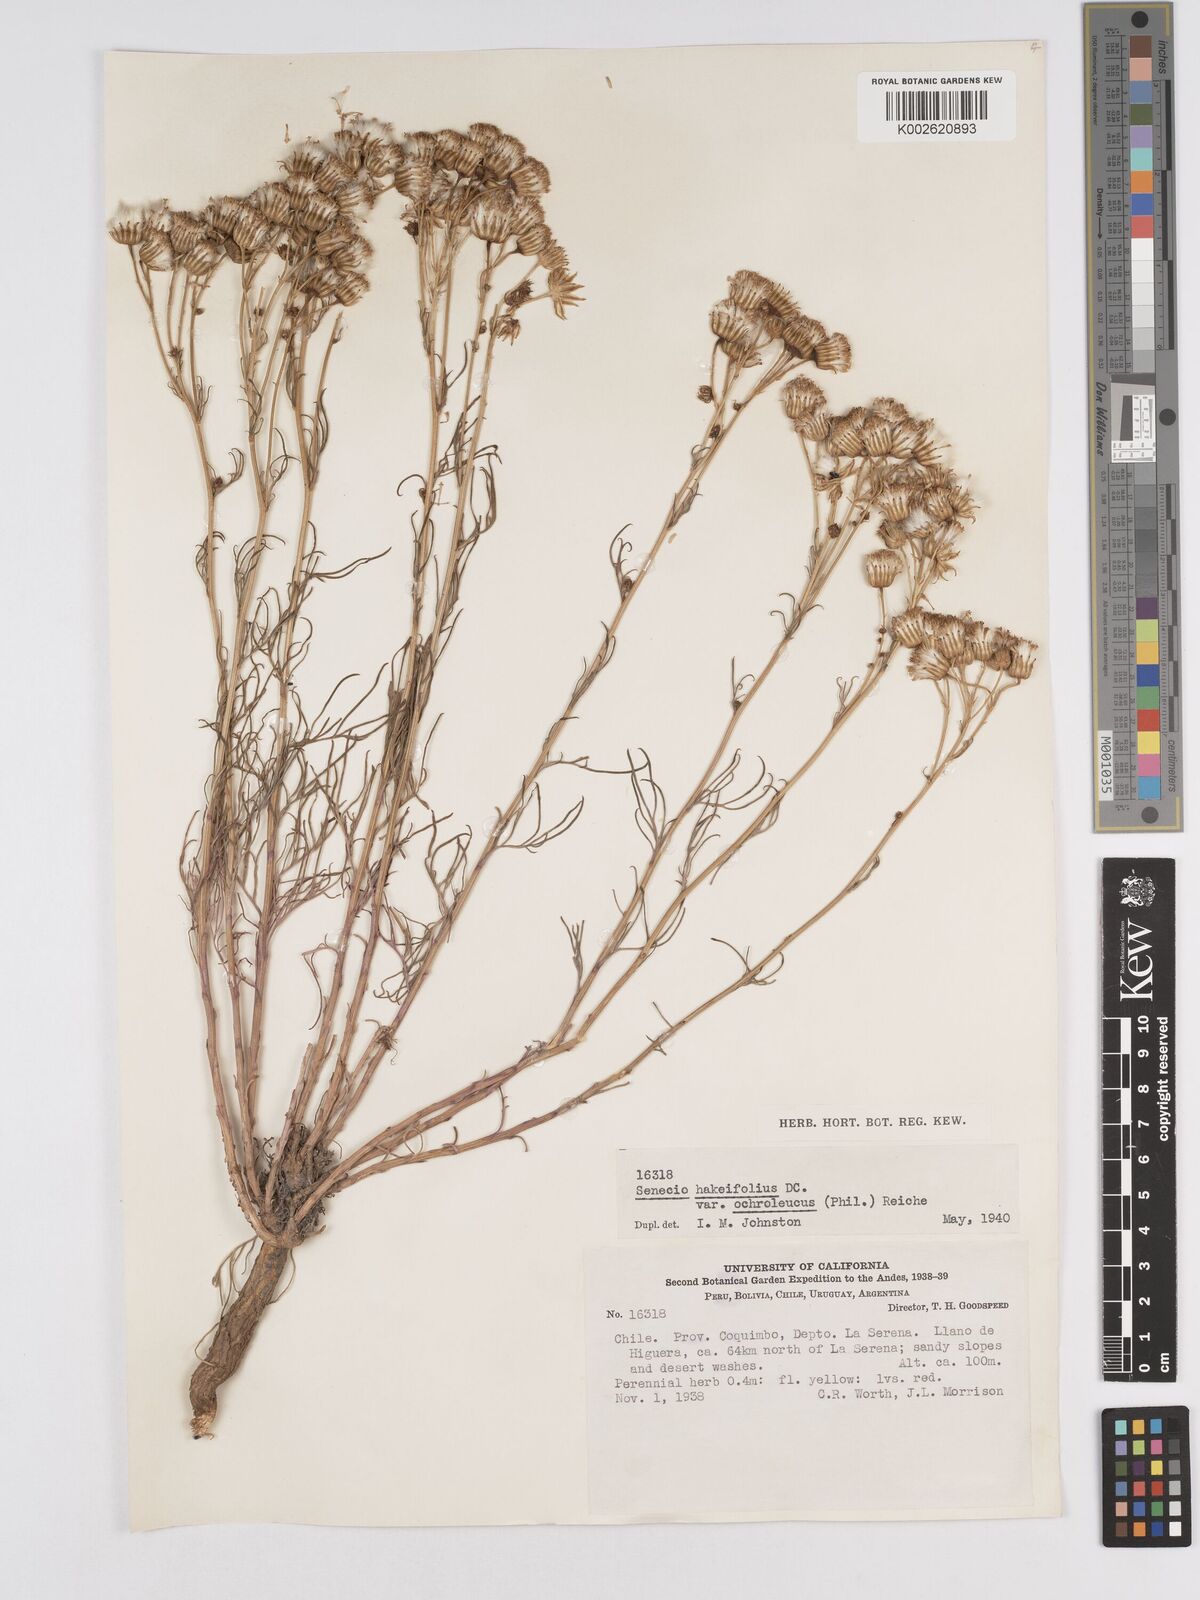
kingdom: Plantae
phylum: Tracheophyta
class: Magnoliopsida
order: Asterales
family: Asteraceae
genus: Senecio
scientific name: Senecio hakeifolius
